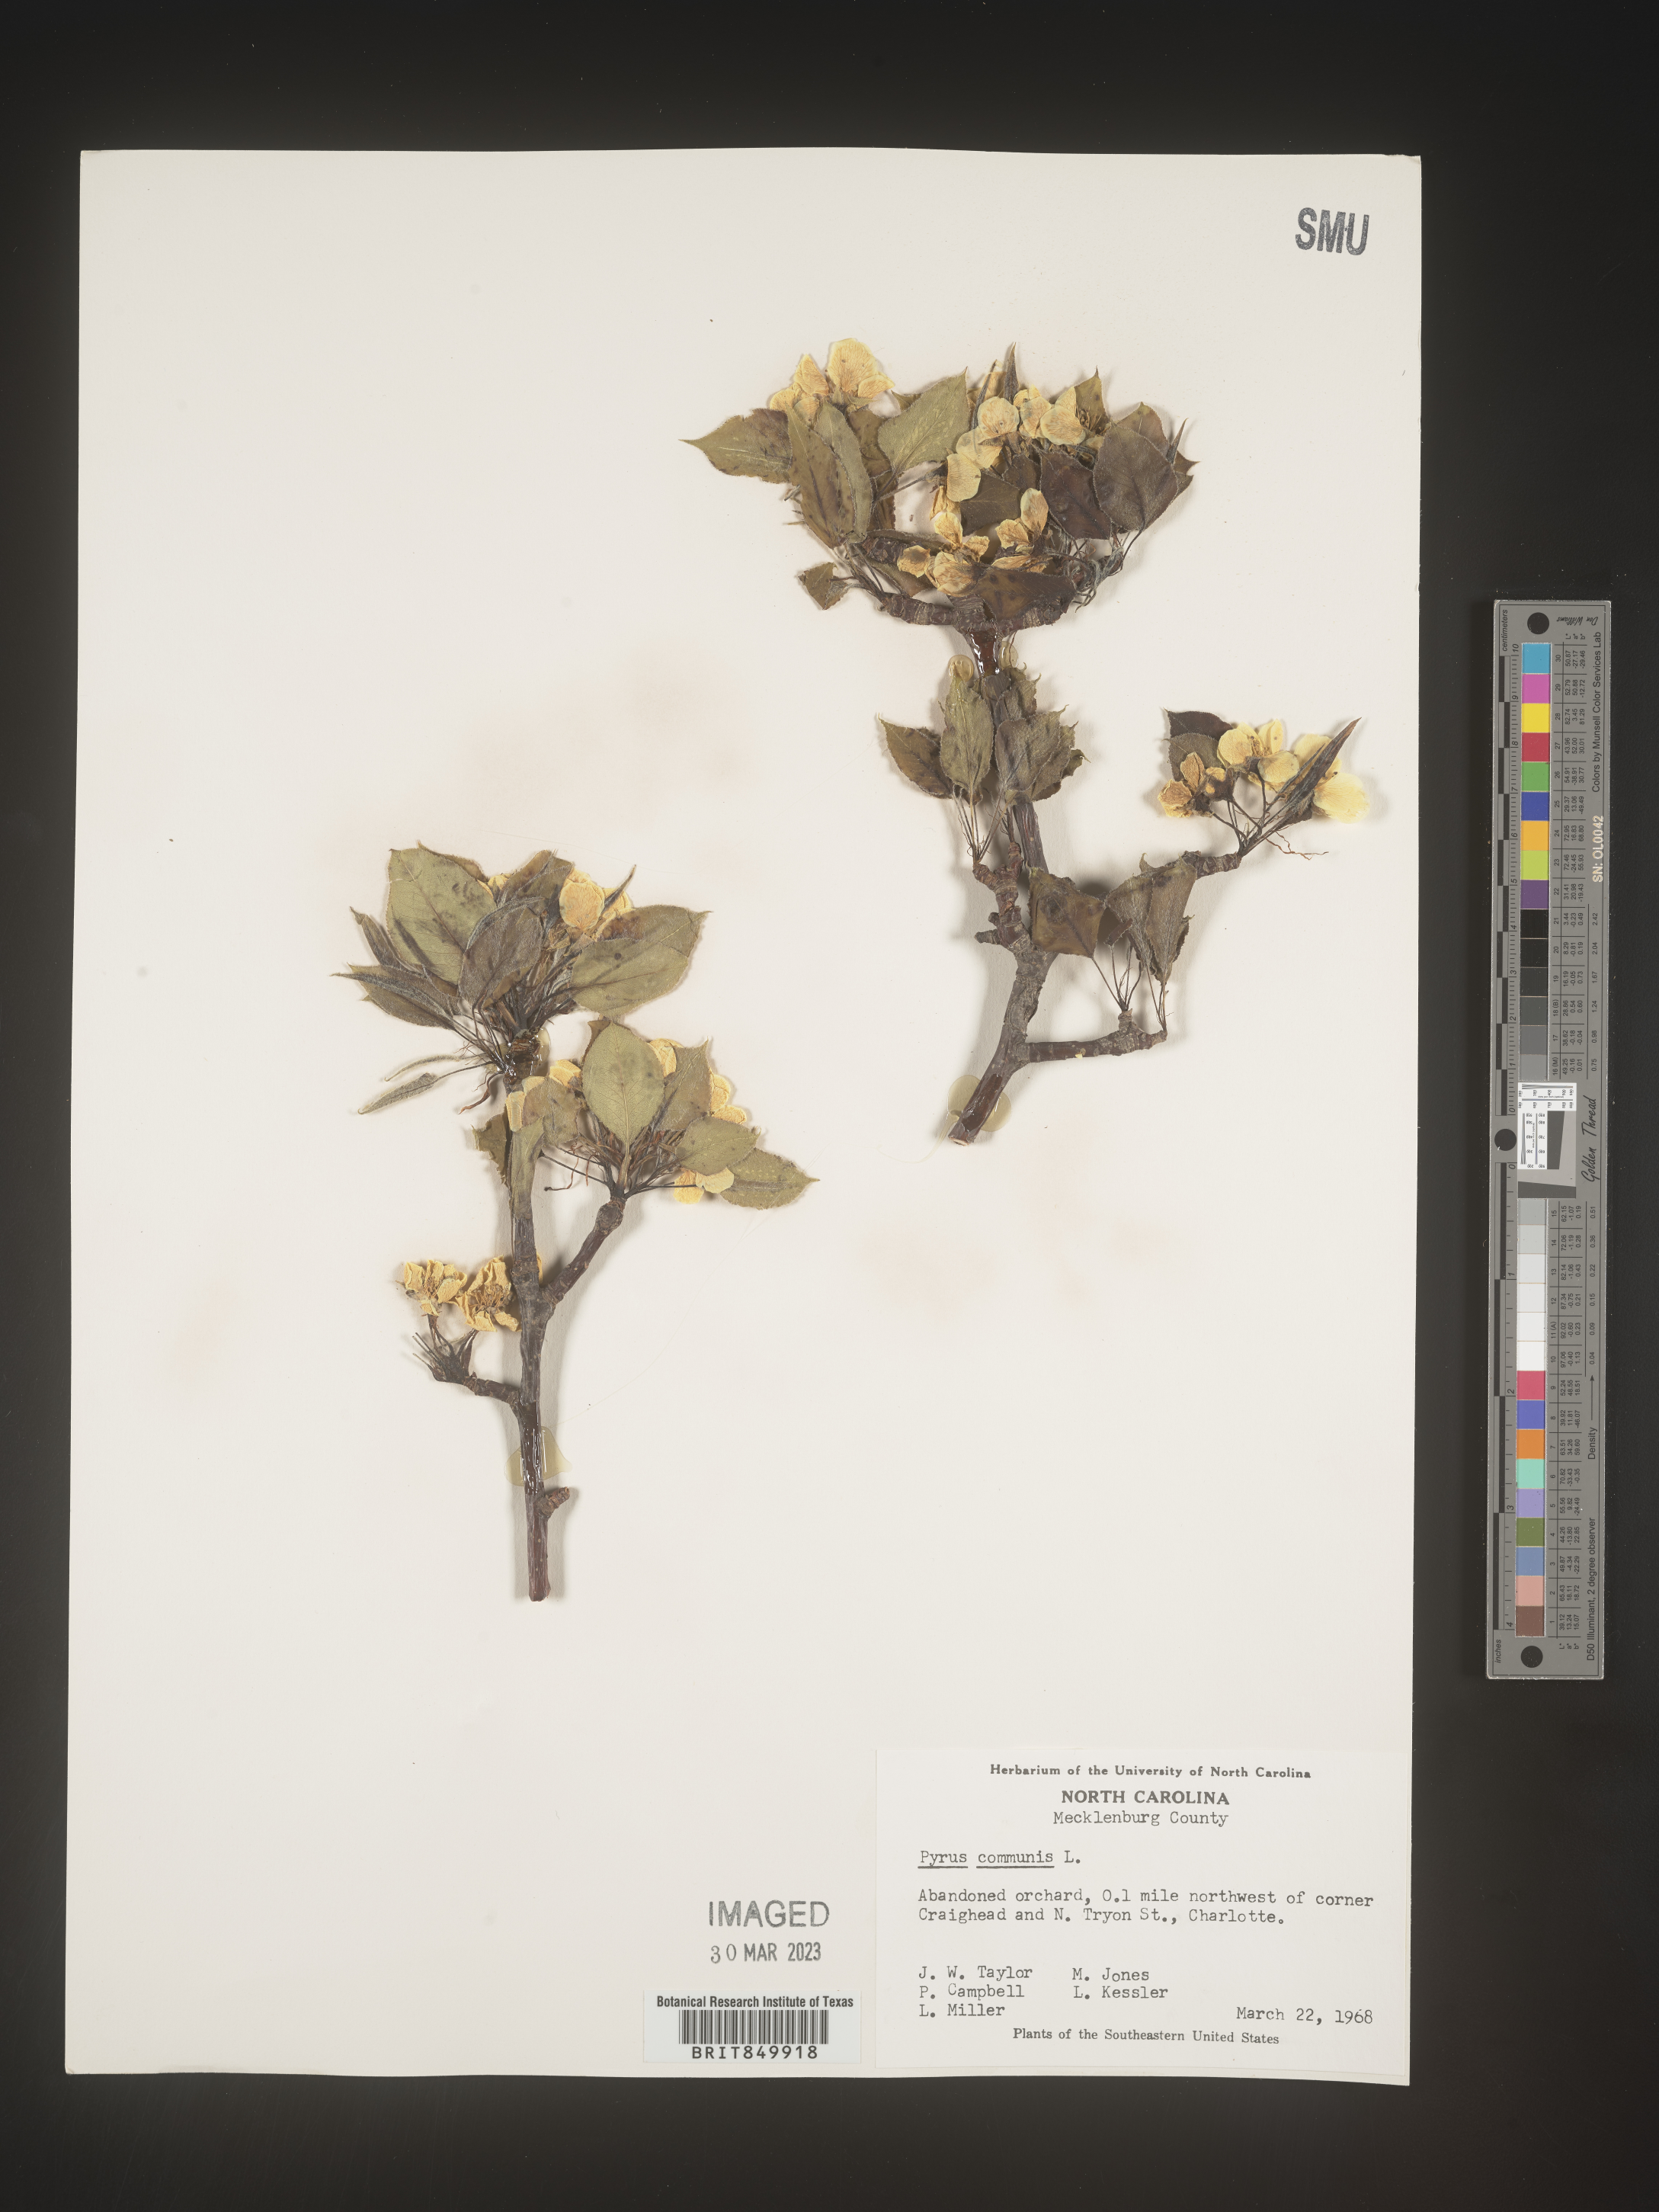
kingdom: Plantae
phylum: Tracheophyta
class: Magnoliopsida
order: Rosales
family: Rosaceae
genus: Pyrus
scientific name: Pyrus
